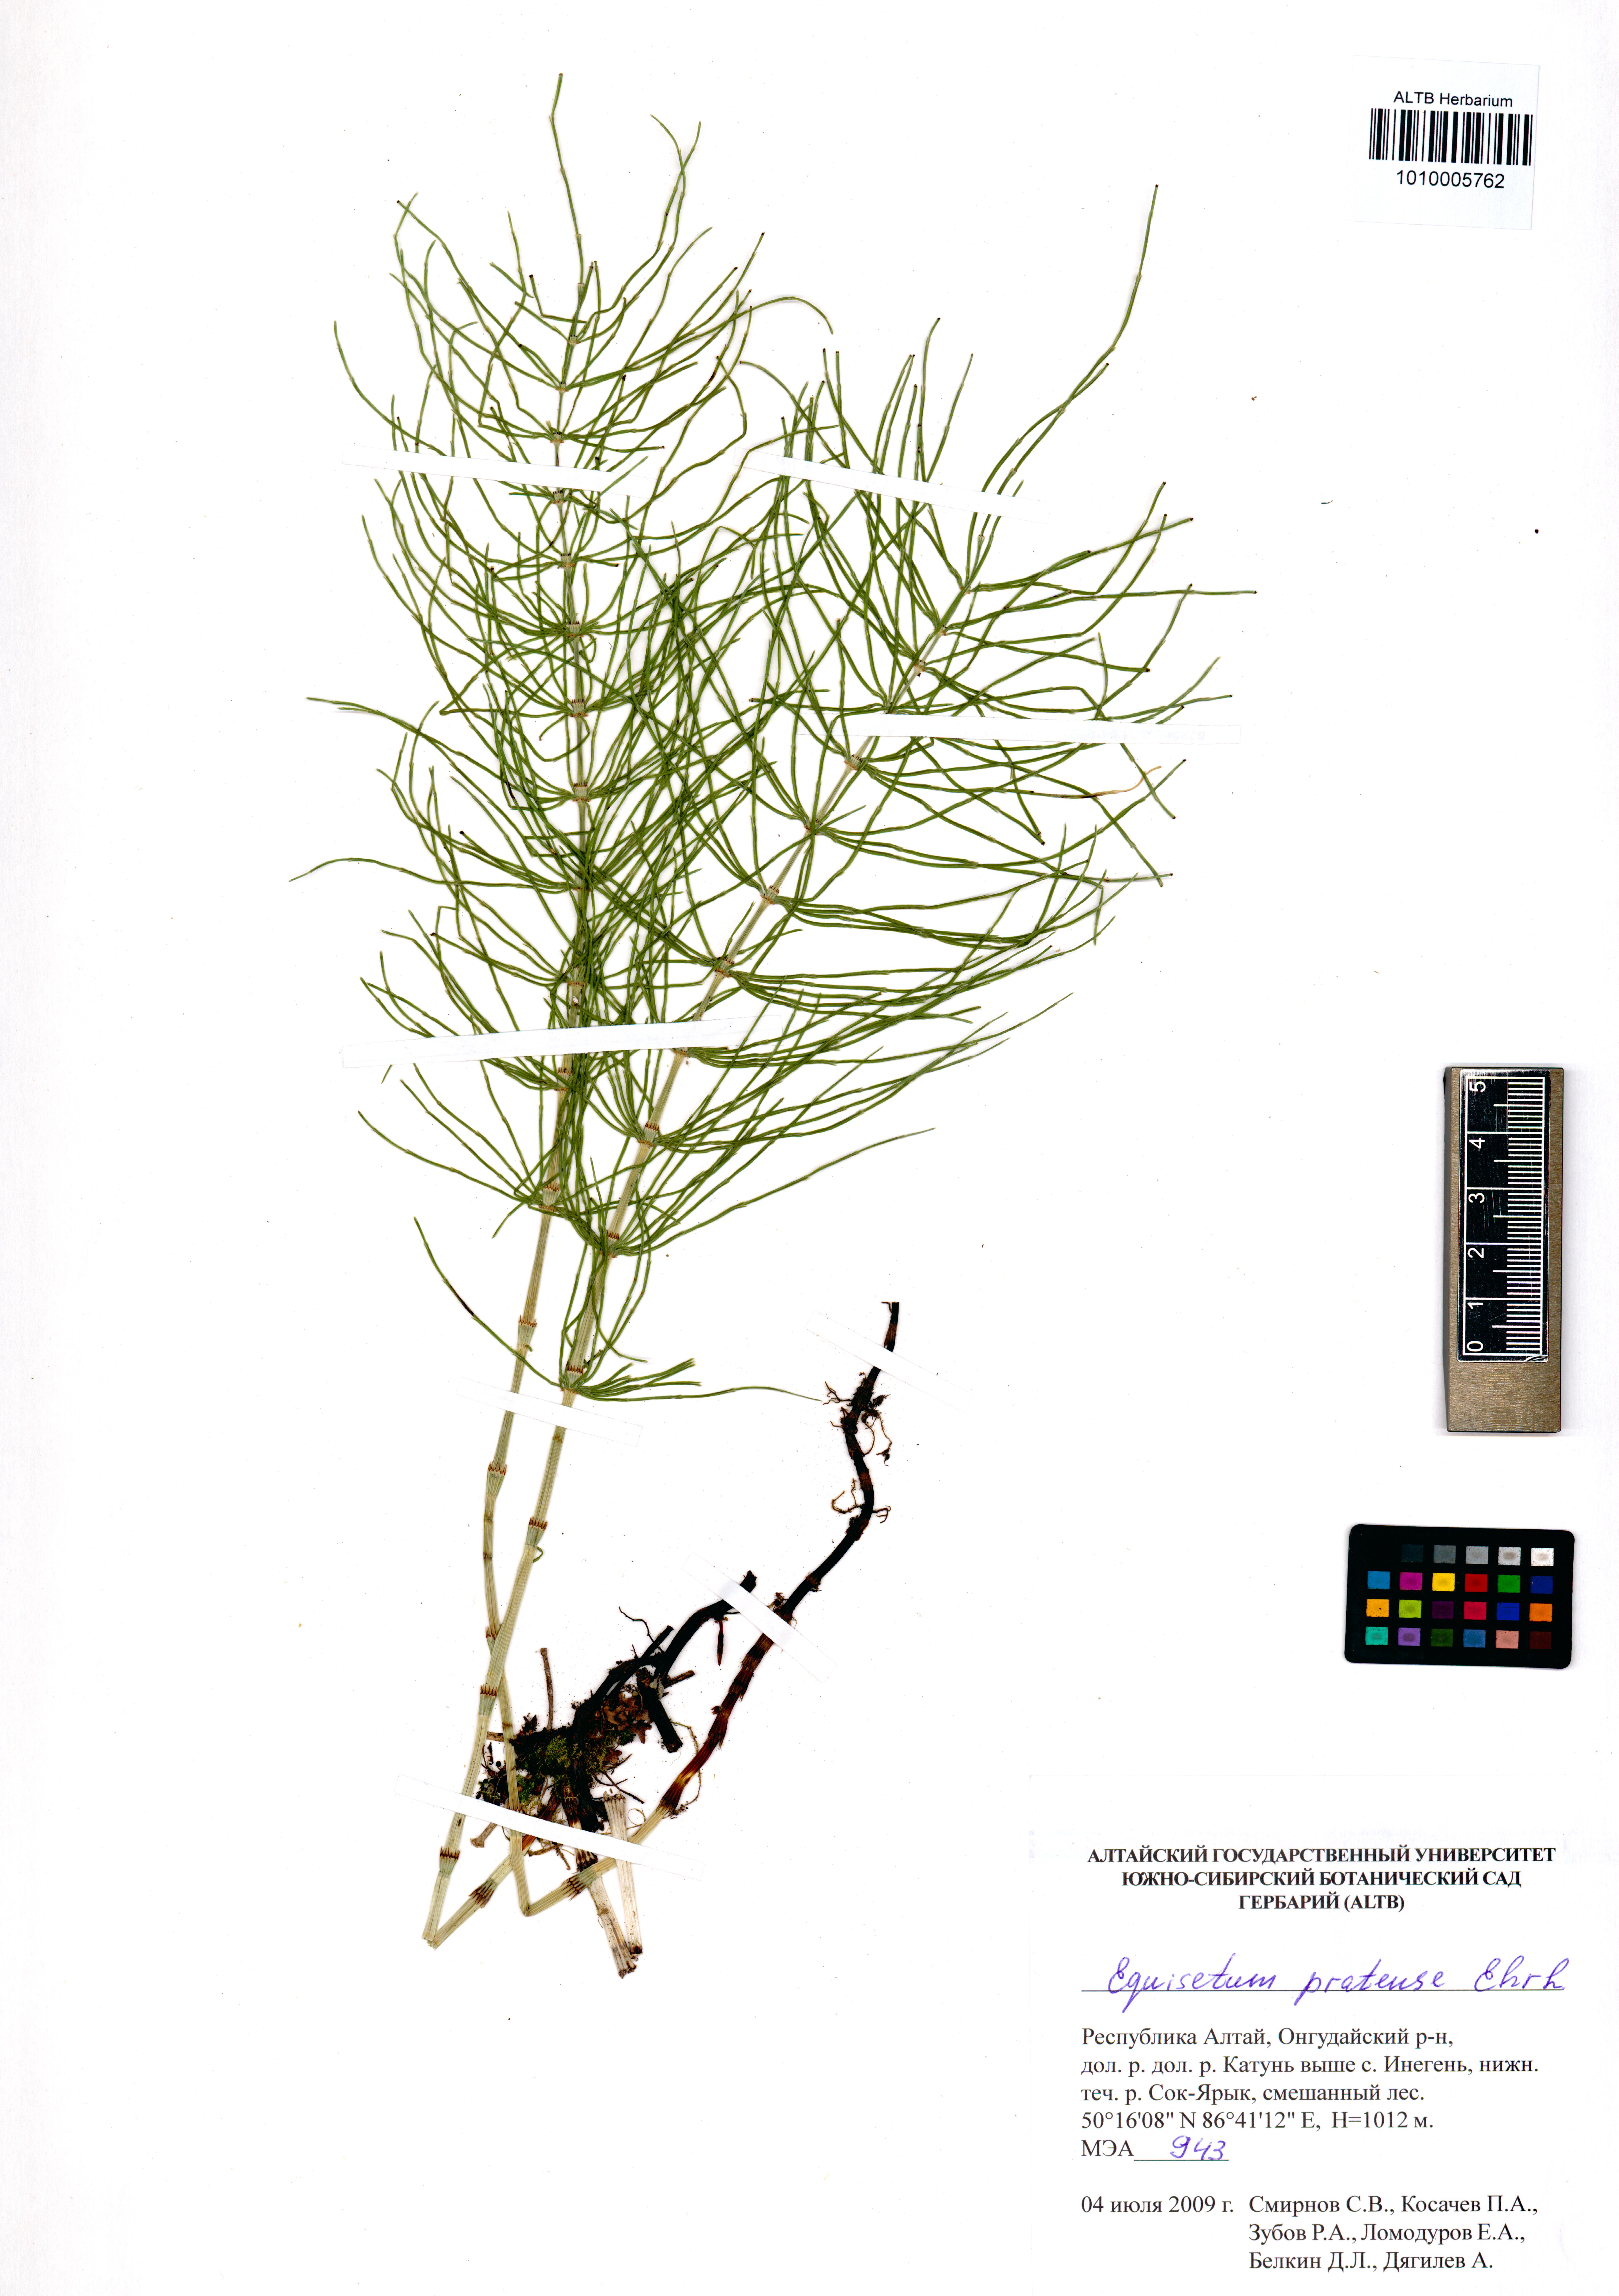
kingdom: Plantae
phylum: Tracheophyta
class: Polypodiopsida
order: Equisetales
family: Equisetaceae
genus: Equisetum
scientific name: Equisetum pratense
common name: Meadow horsetail
